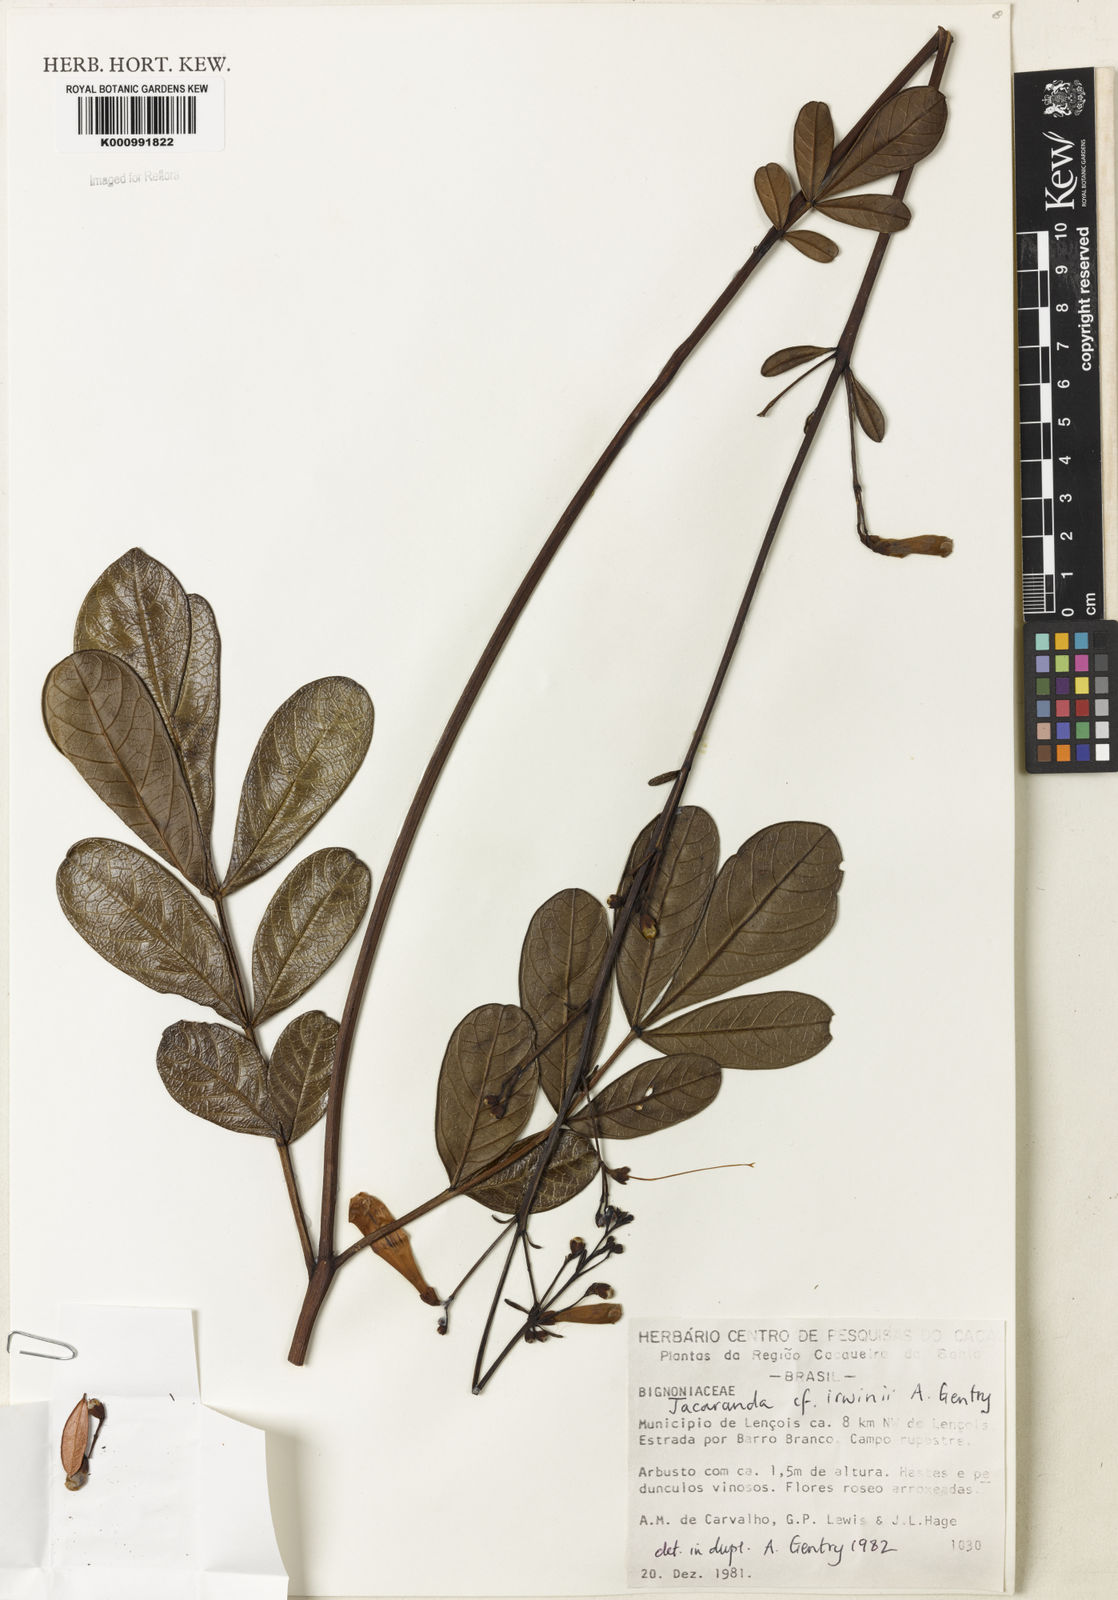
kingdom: Plantae
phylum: Tracheophyta
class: Magnoliopsida
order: Lamiales
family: Bignoniaceae
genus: Jacaranda
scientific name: Jacaranda irwinii
